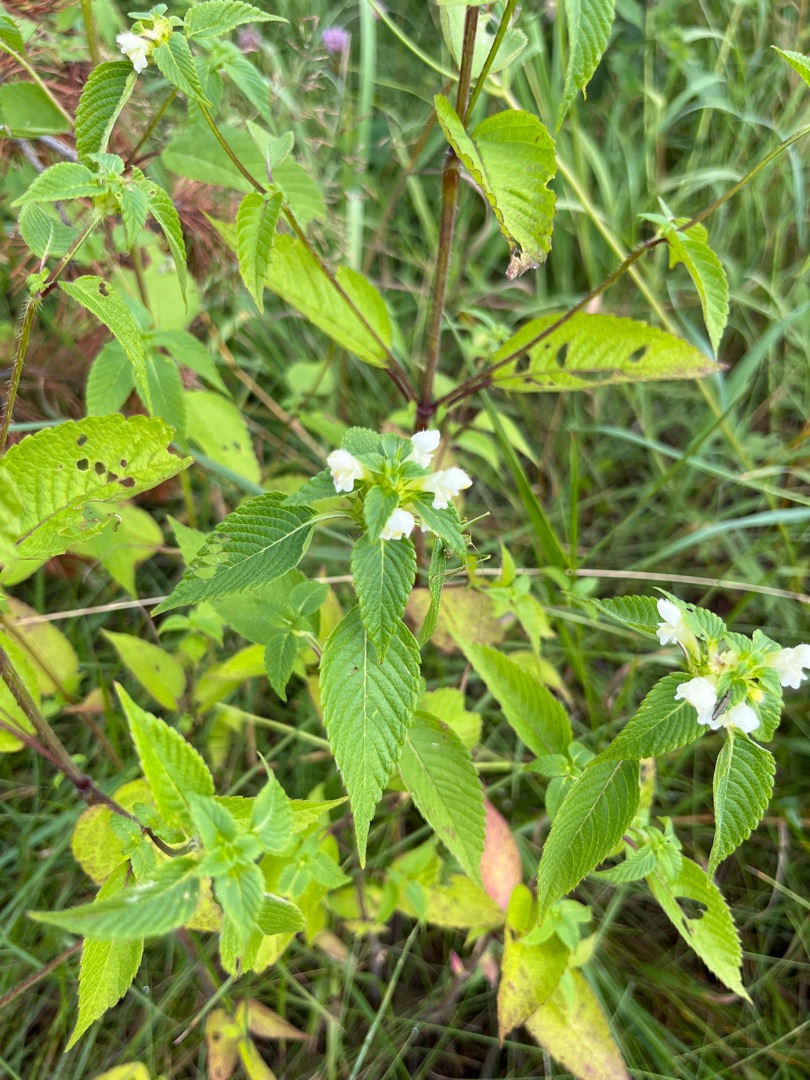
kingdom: Plantae
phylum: Tracheophyta
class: Magnoliopsida
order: Lamiales
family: Lamiaceae
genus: Galeopsis
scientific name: Galeopsis
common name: Hanekroslægten
